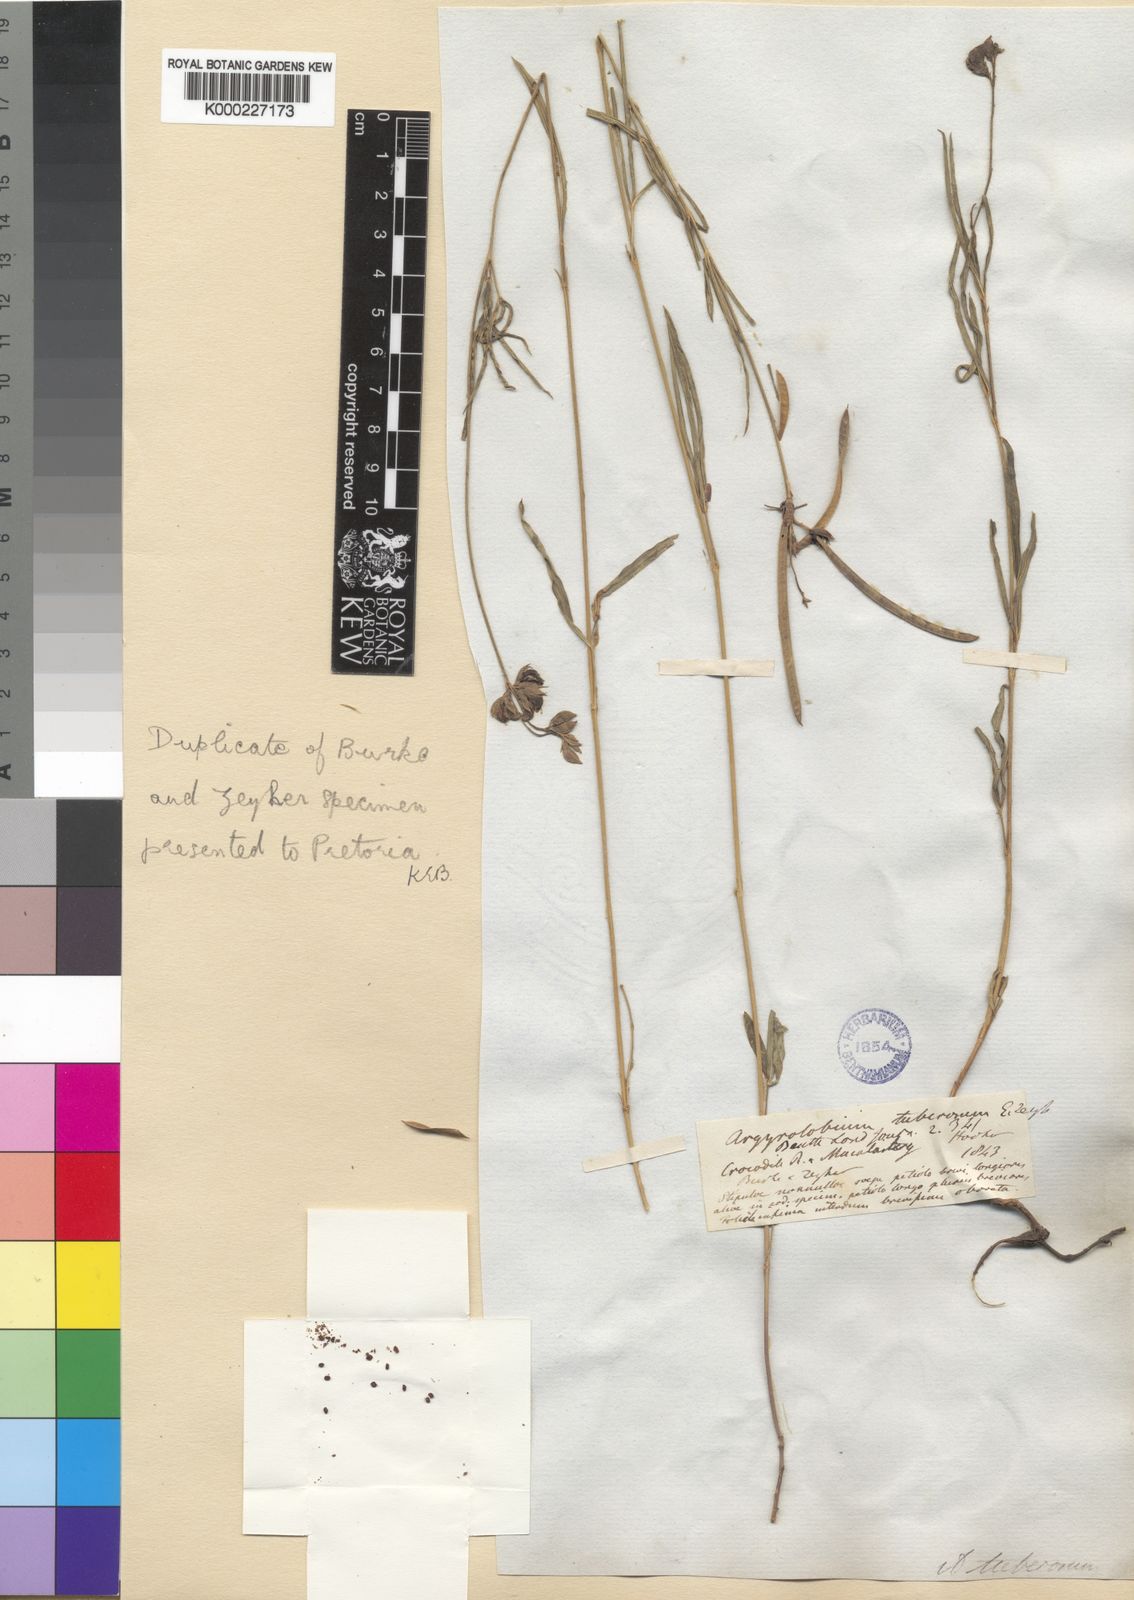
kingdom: Plantae
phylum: Tracheophyta
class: Magnoliopsida
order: Fabales
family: Fabaceae
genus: Argyrolobium
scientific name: Argyrolobium tuberosum
